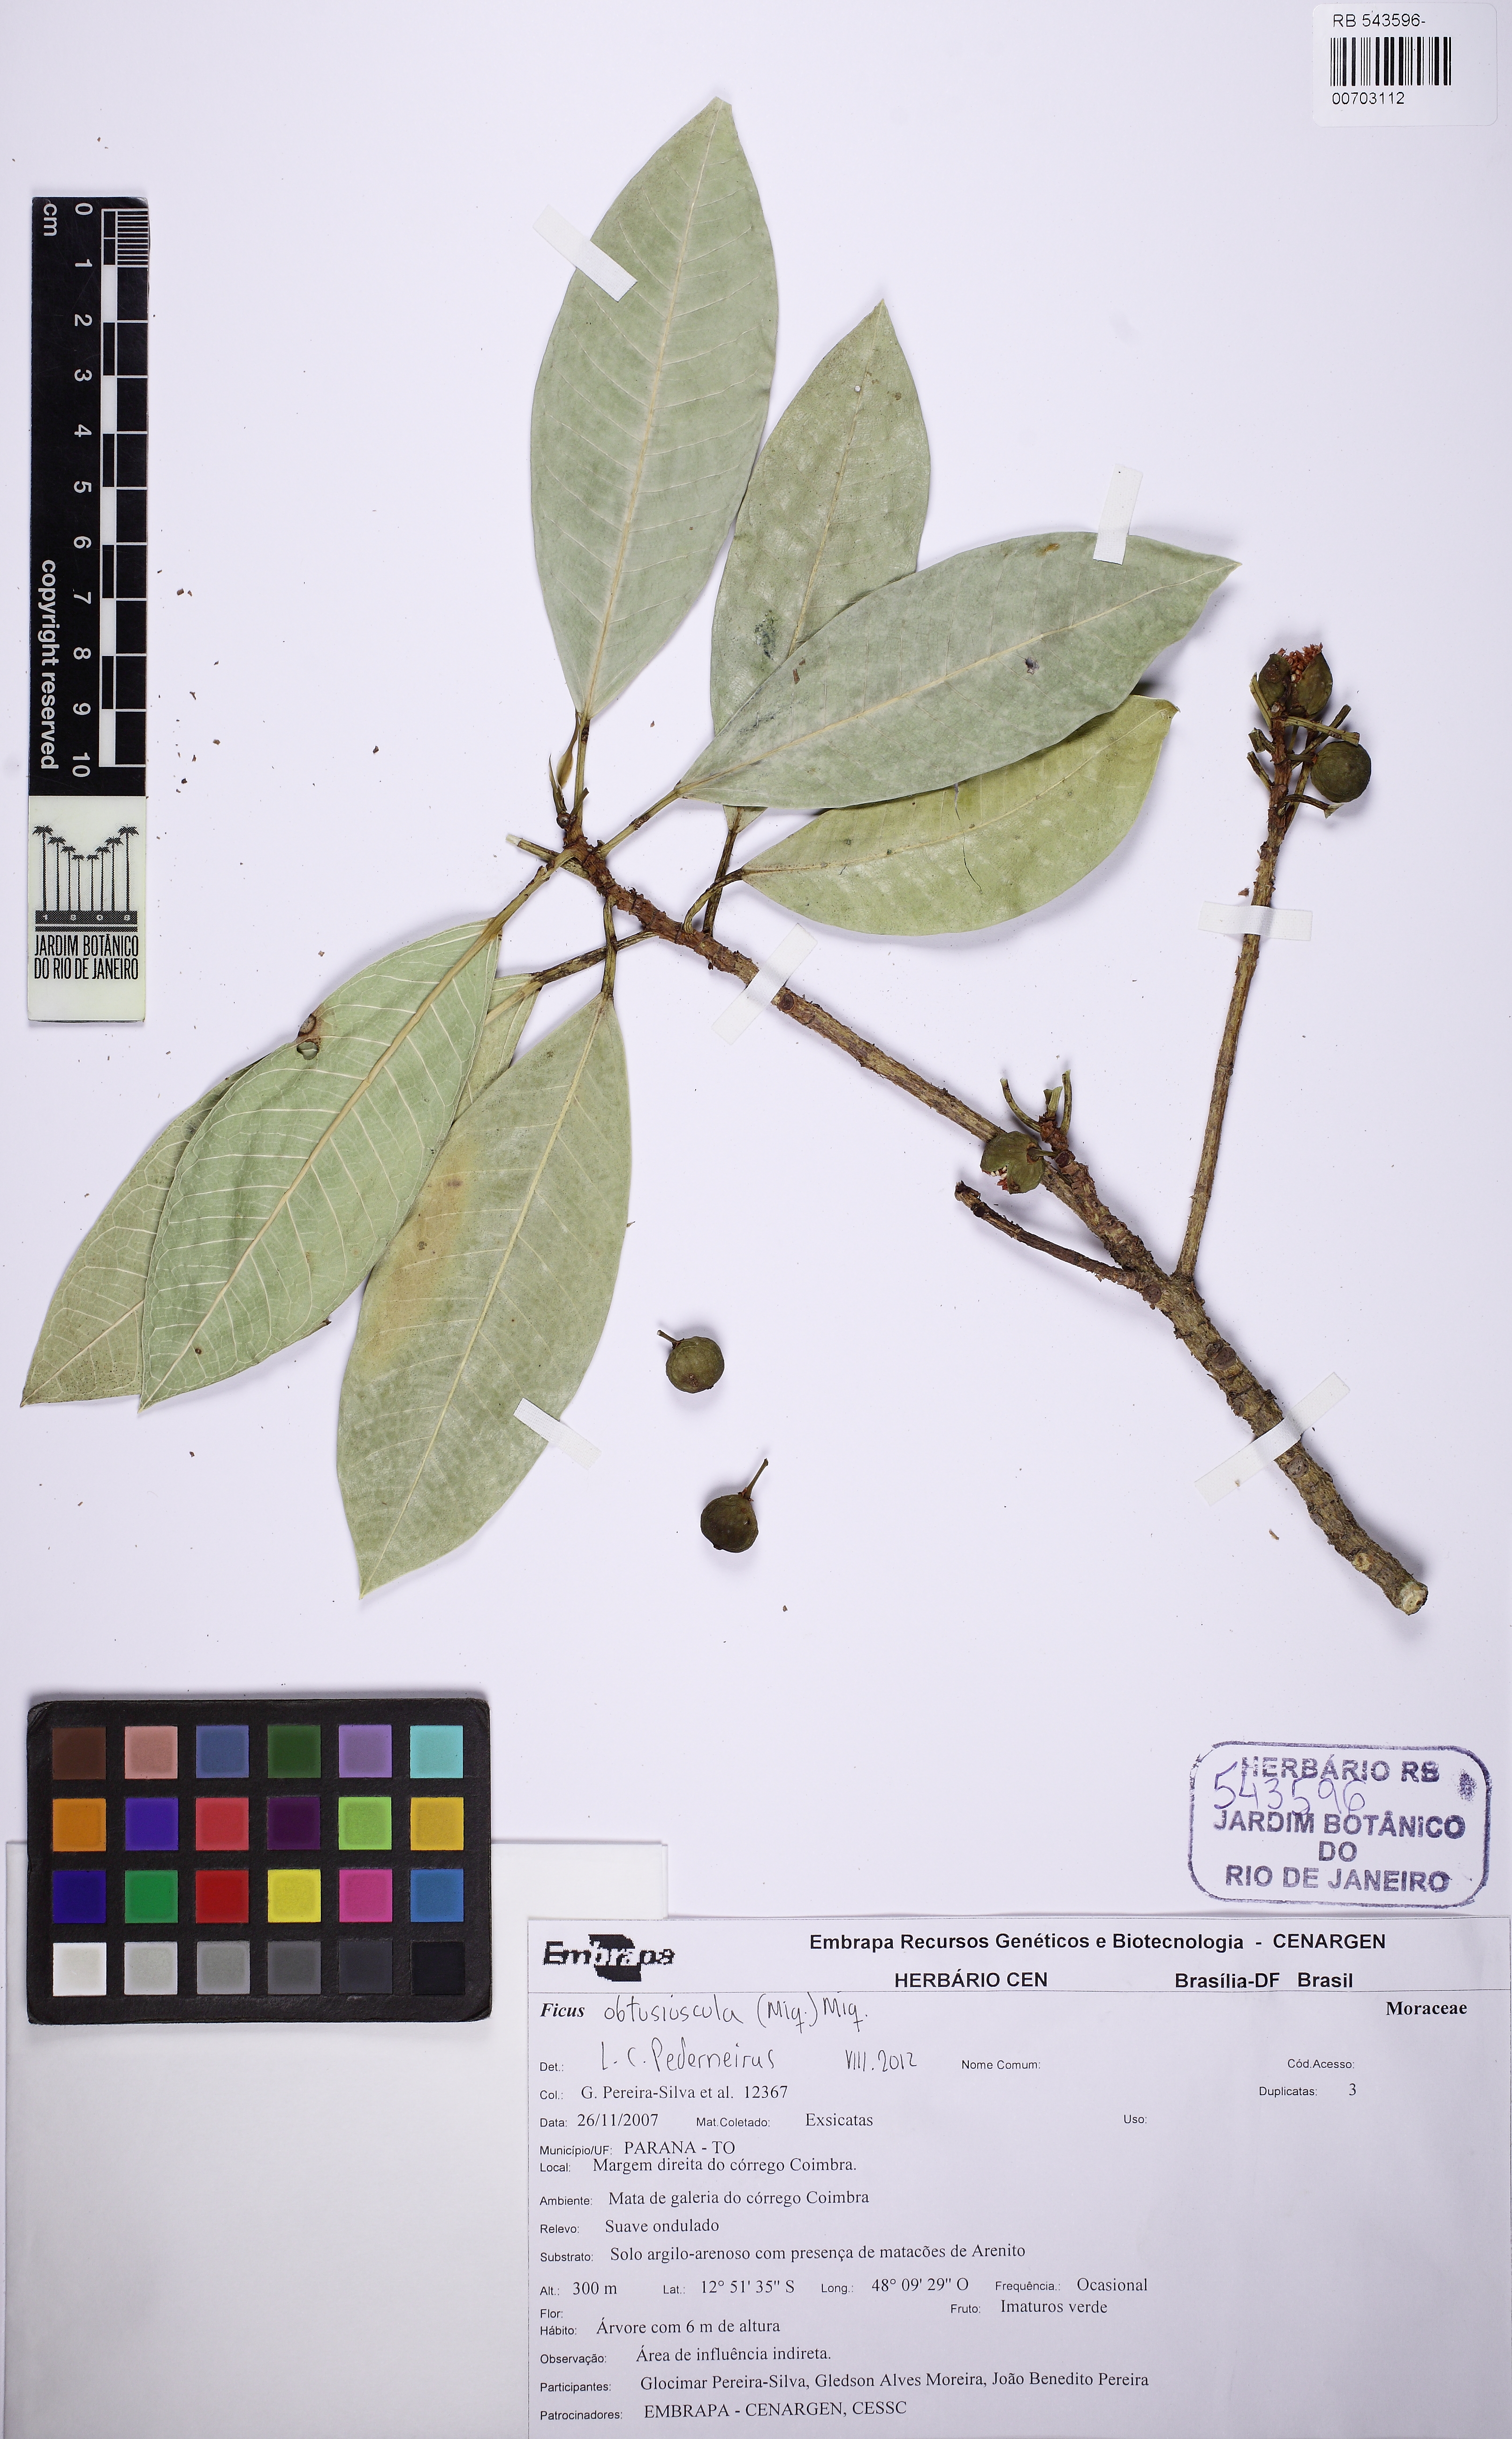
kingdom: Plantae
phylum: Tracheophyta
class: Magnoliopsida
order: Rosales
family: Moraceae
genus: Ficus
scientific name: Ficus obtusiuscula
